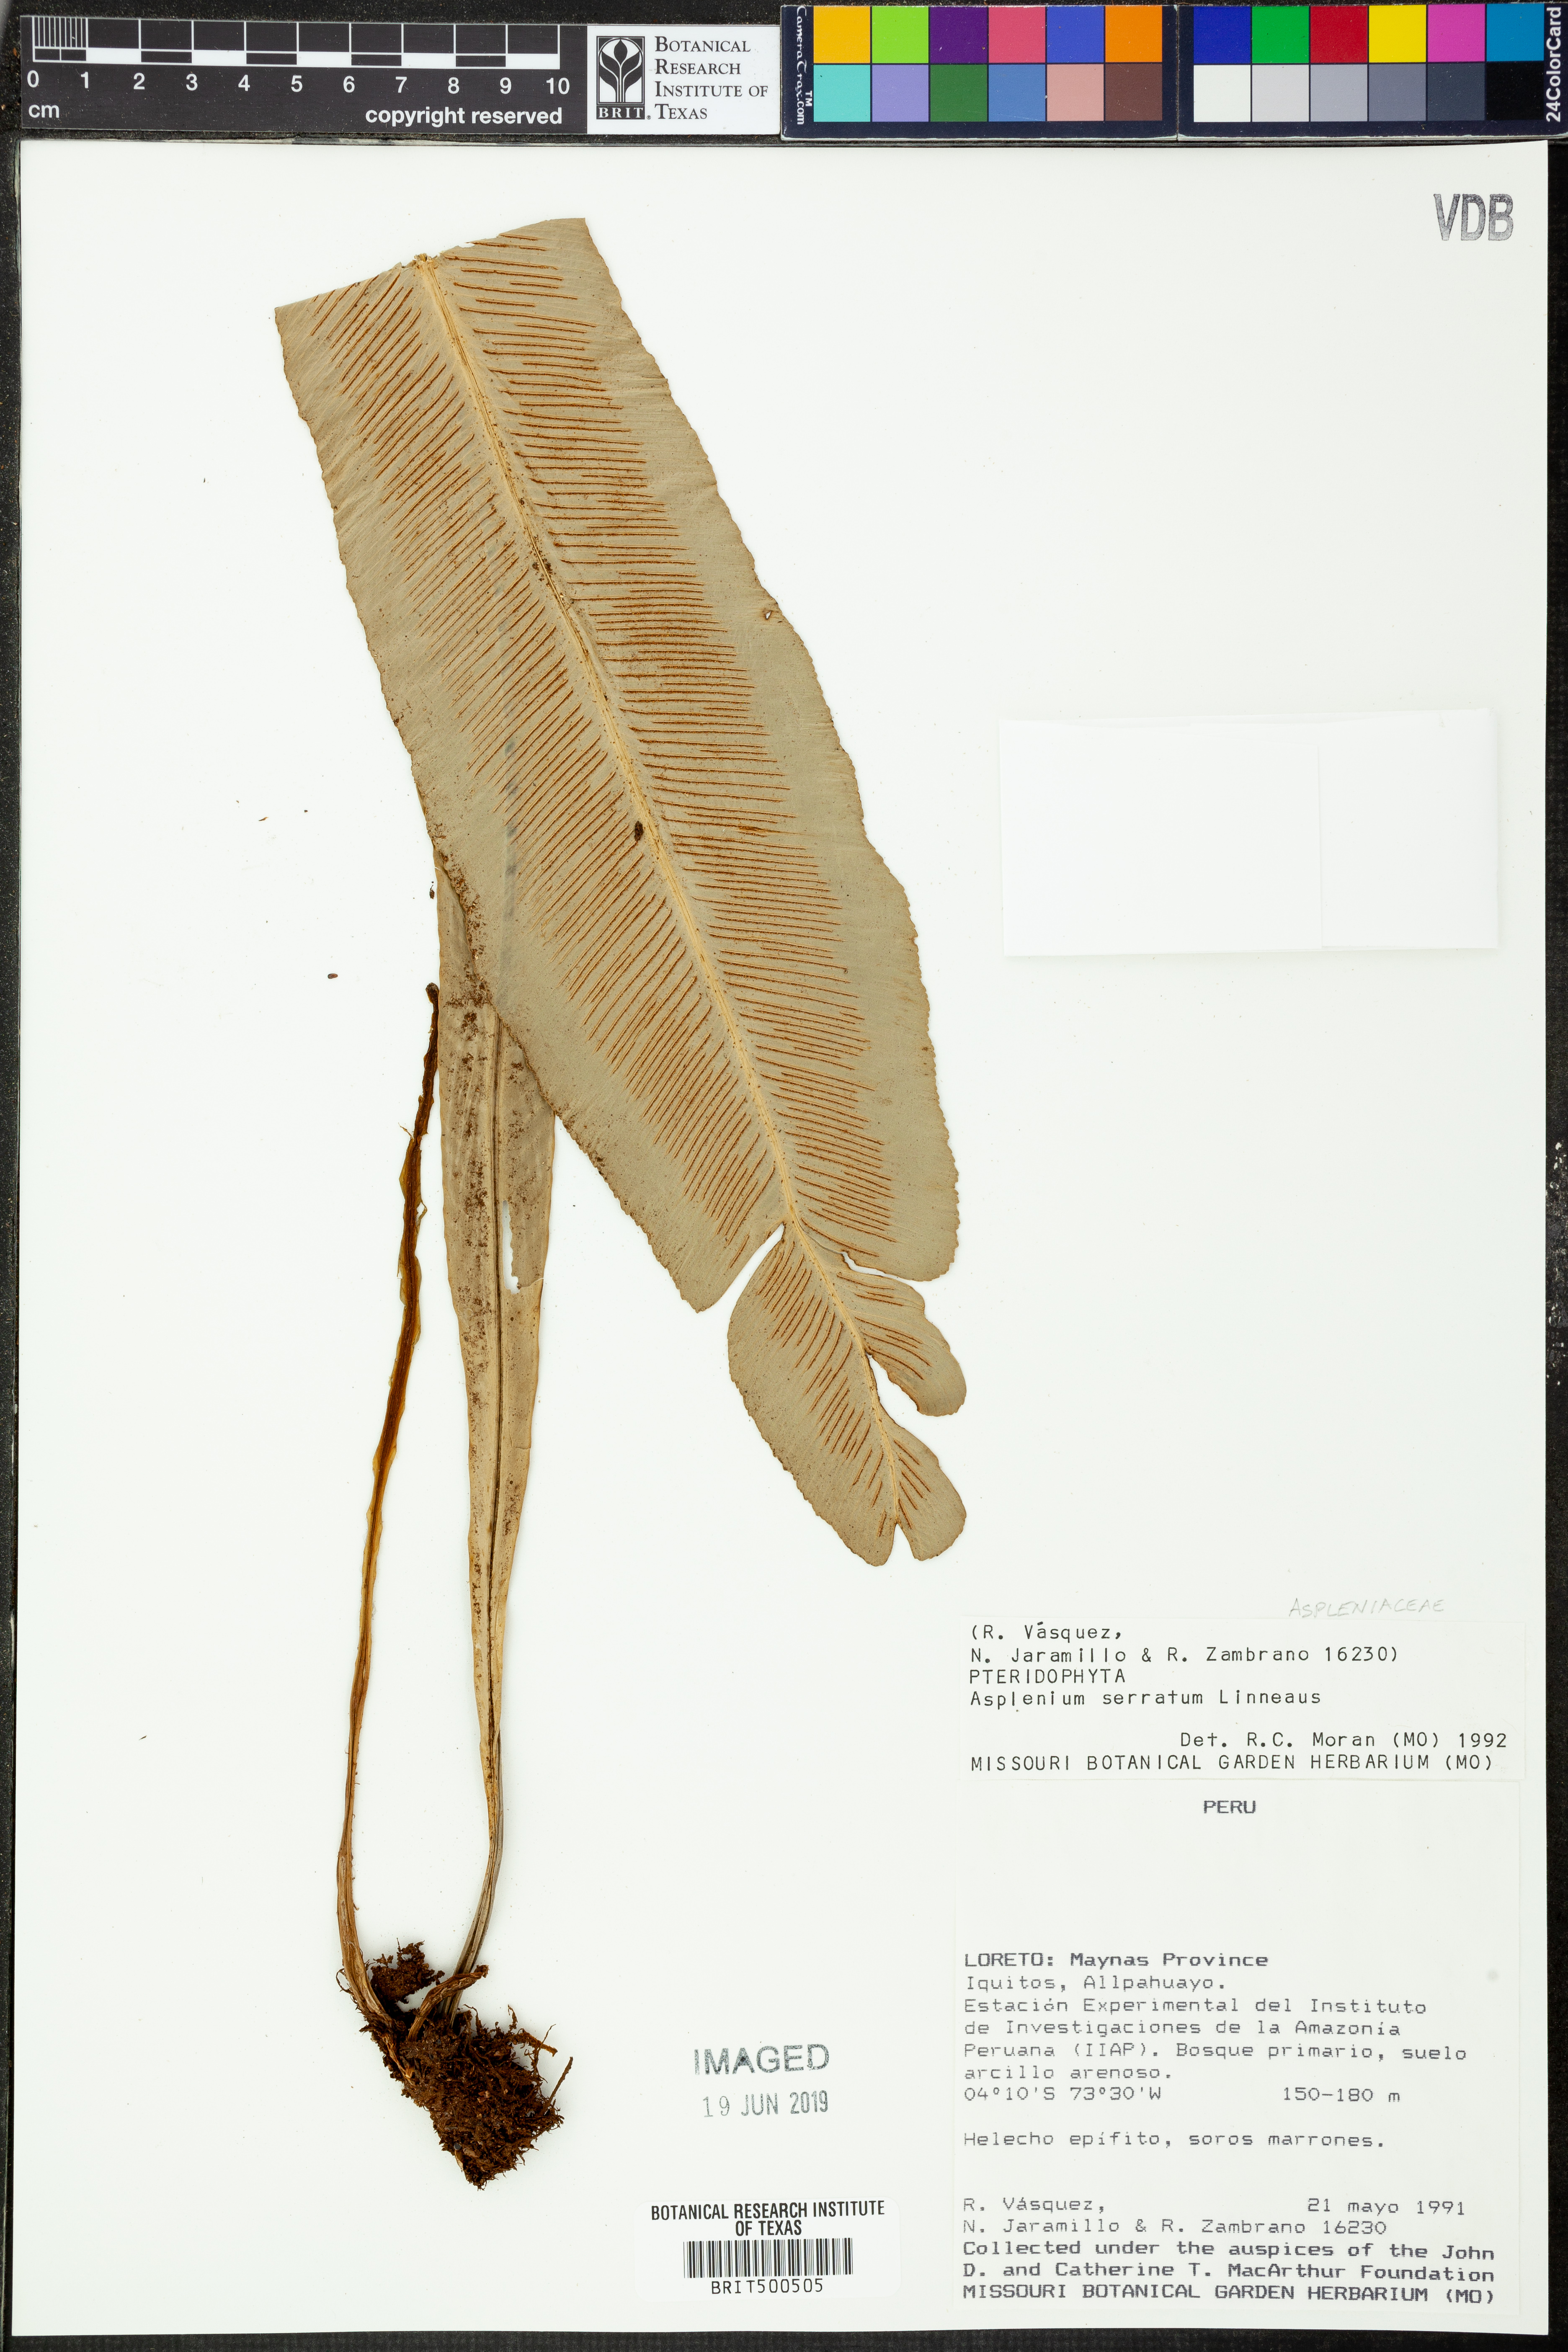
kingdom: Plantae
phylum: Tracheophyta
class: Polypodiopsida
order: Polypodiales
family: Aspleniaceae
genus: Asplenium
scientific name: Asplenium serratum
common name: Wild birdnest fern
